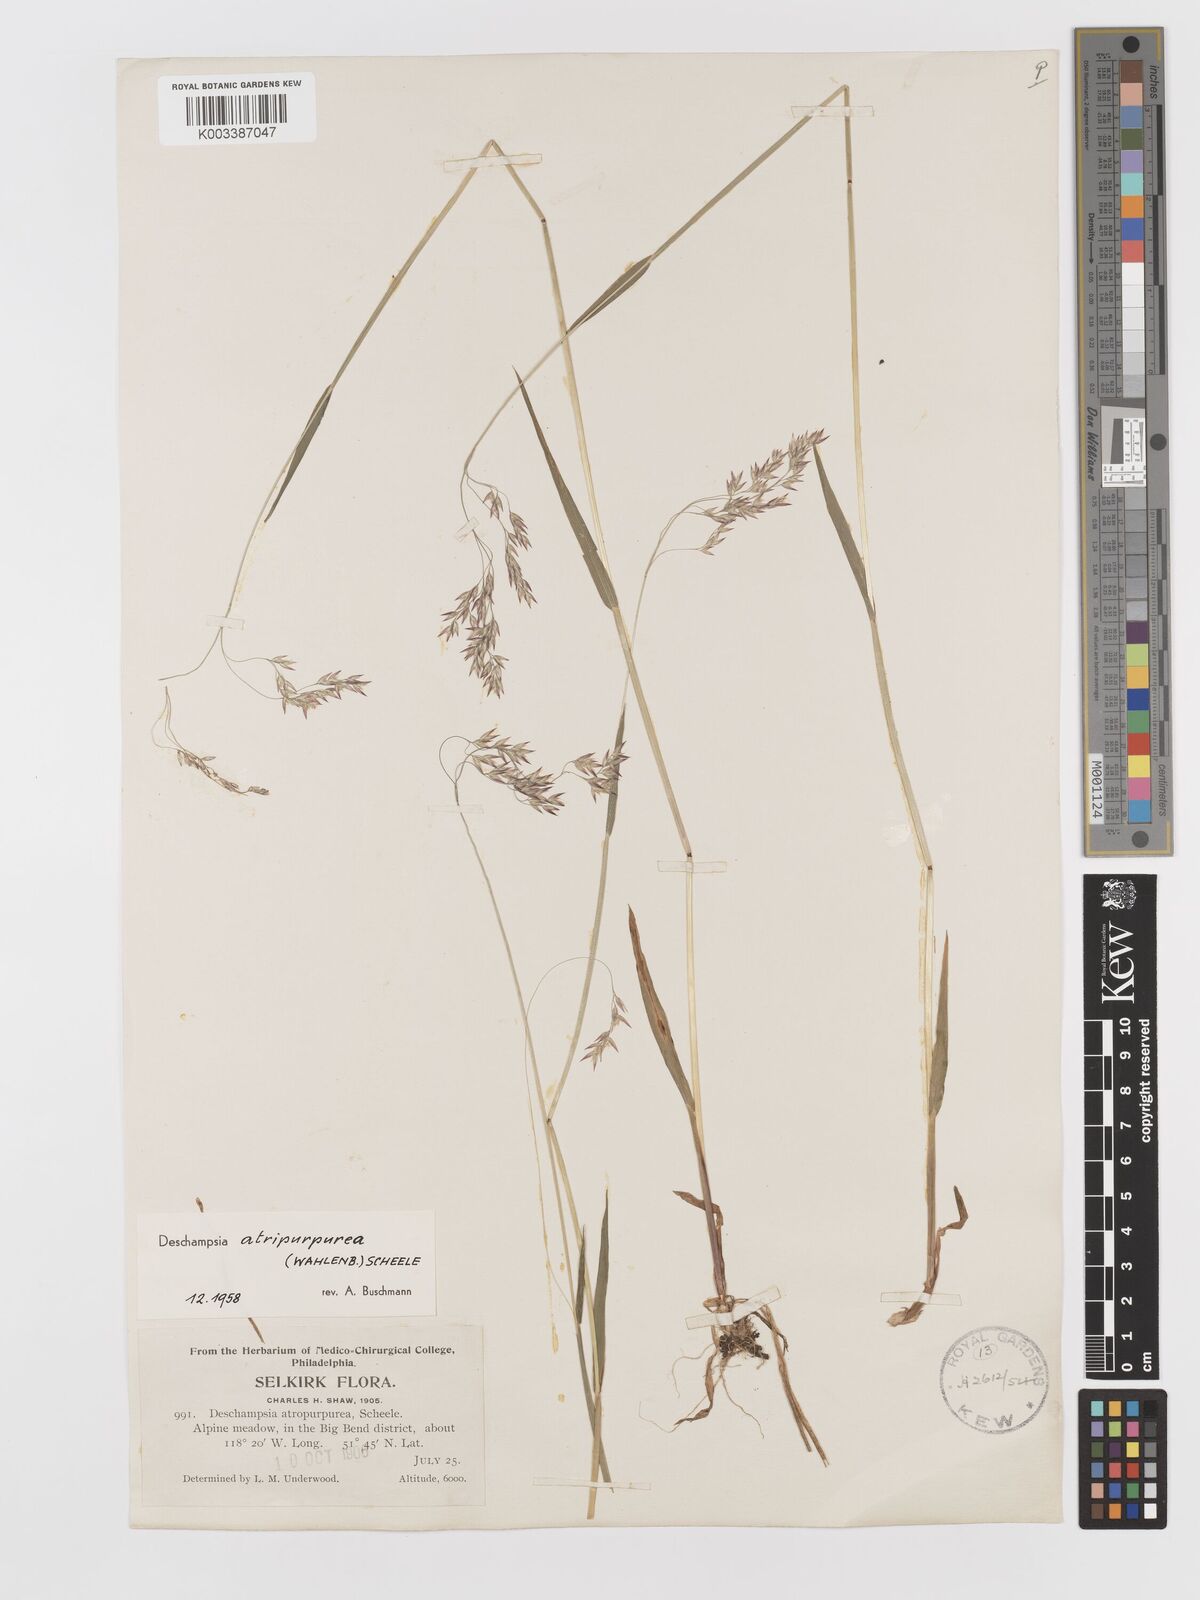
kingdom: Plantae
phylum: Tracheophyta
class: Liliopsida
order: Poales
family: Poaceae
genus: Vahlodea
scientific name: Vahlodea atropurpurea
